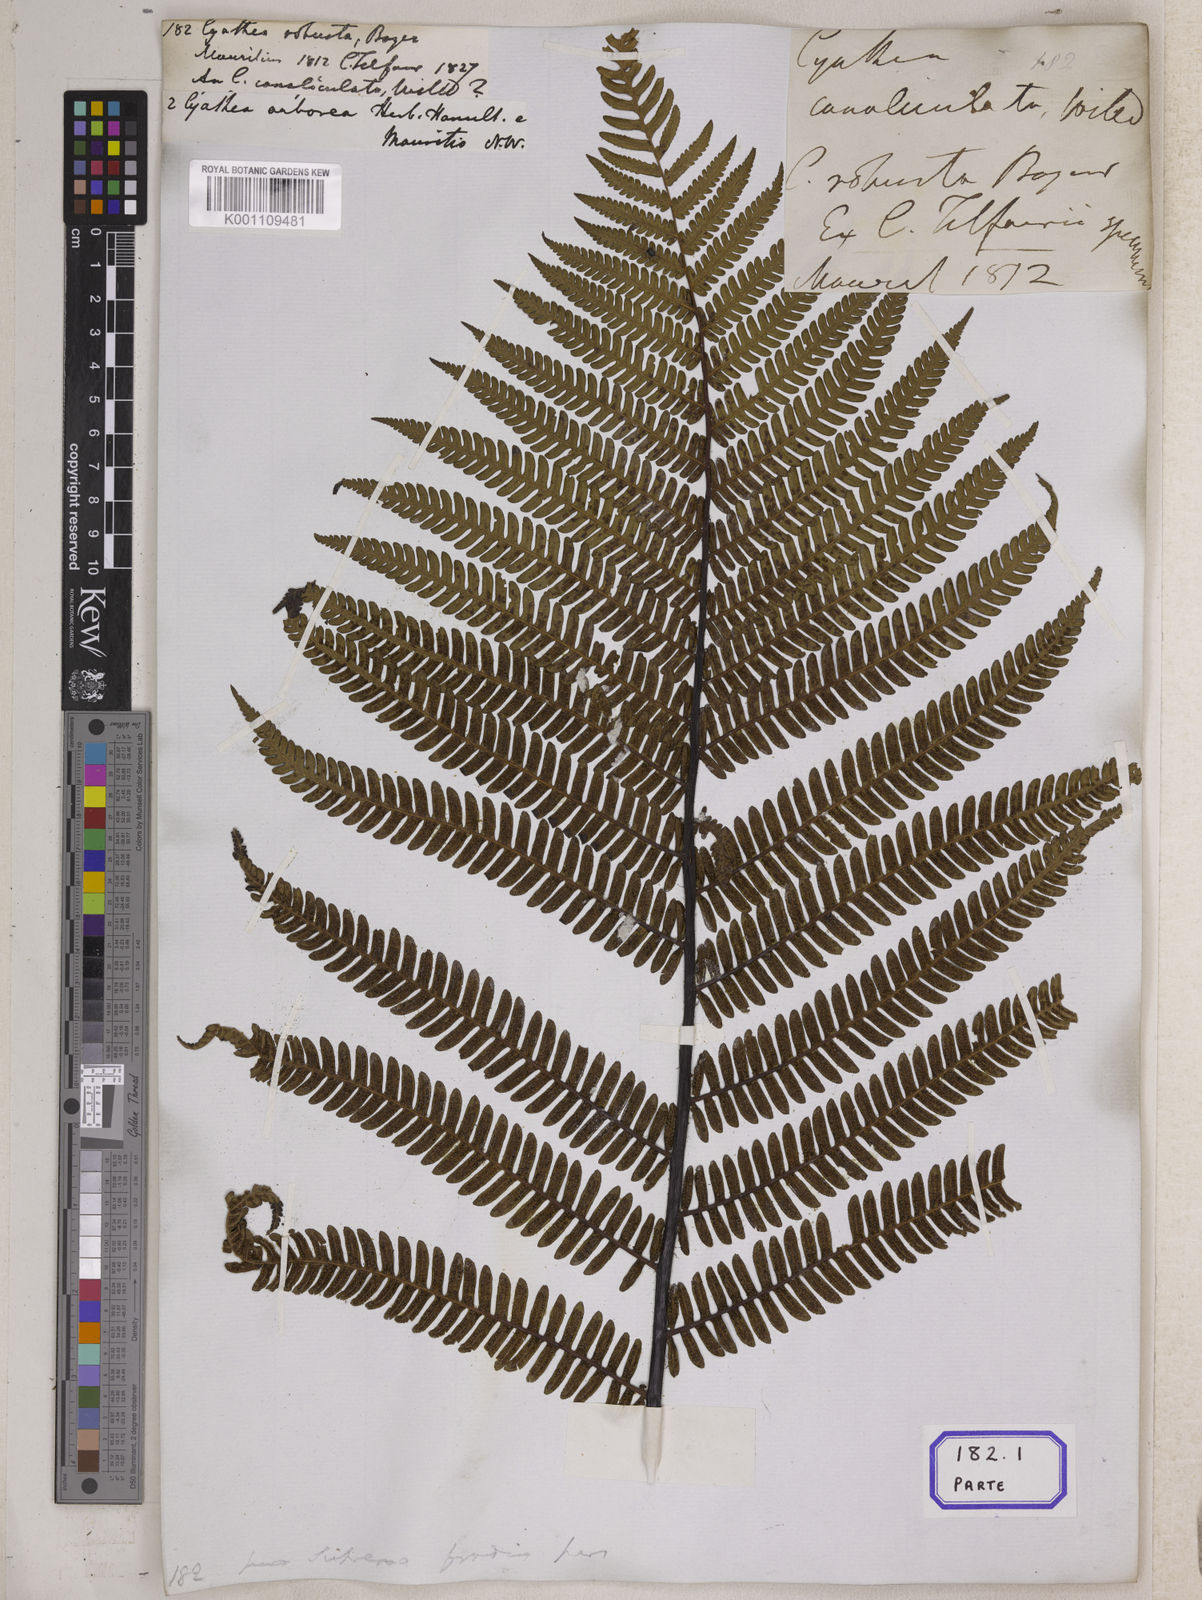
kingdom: Plantae
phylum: Tracheophyta
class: Polypodiopsida
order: Cyatheales
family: Cyatheaceae
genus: Alsophila
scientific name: Alsophila borbonica
